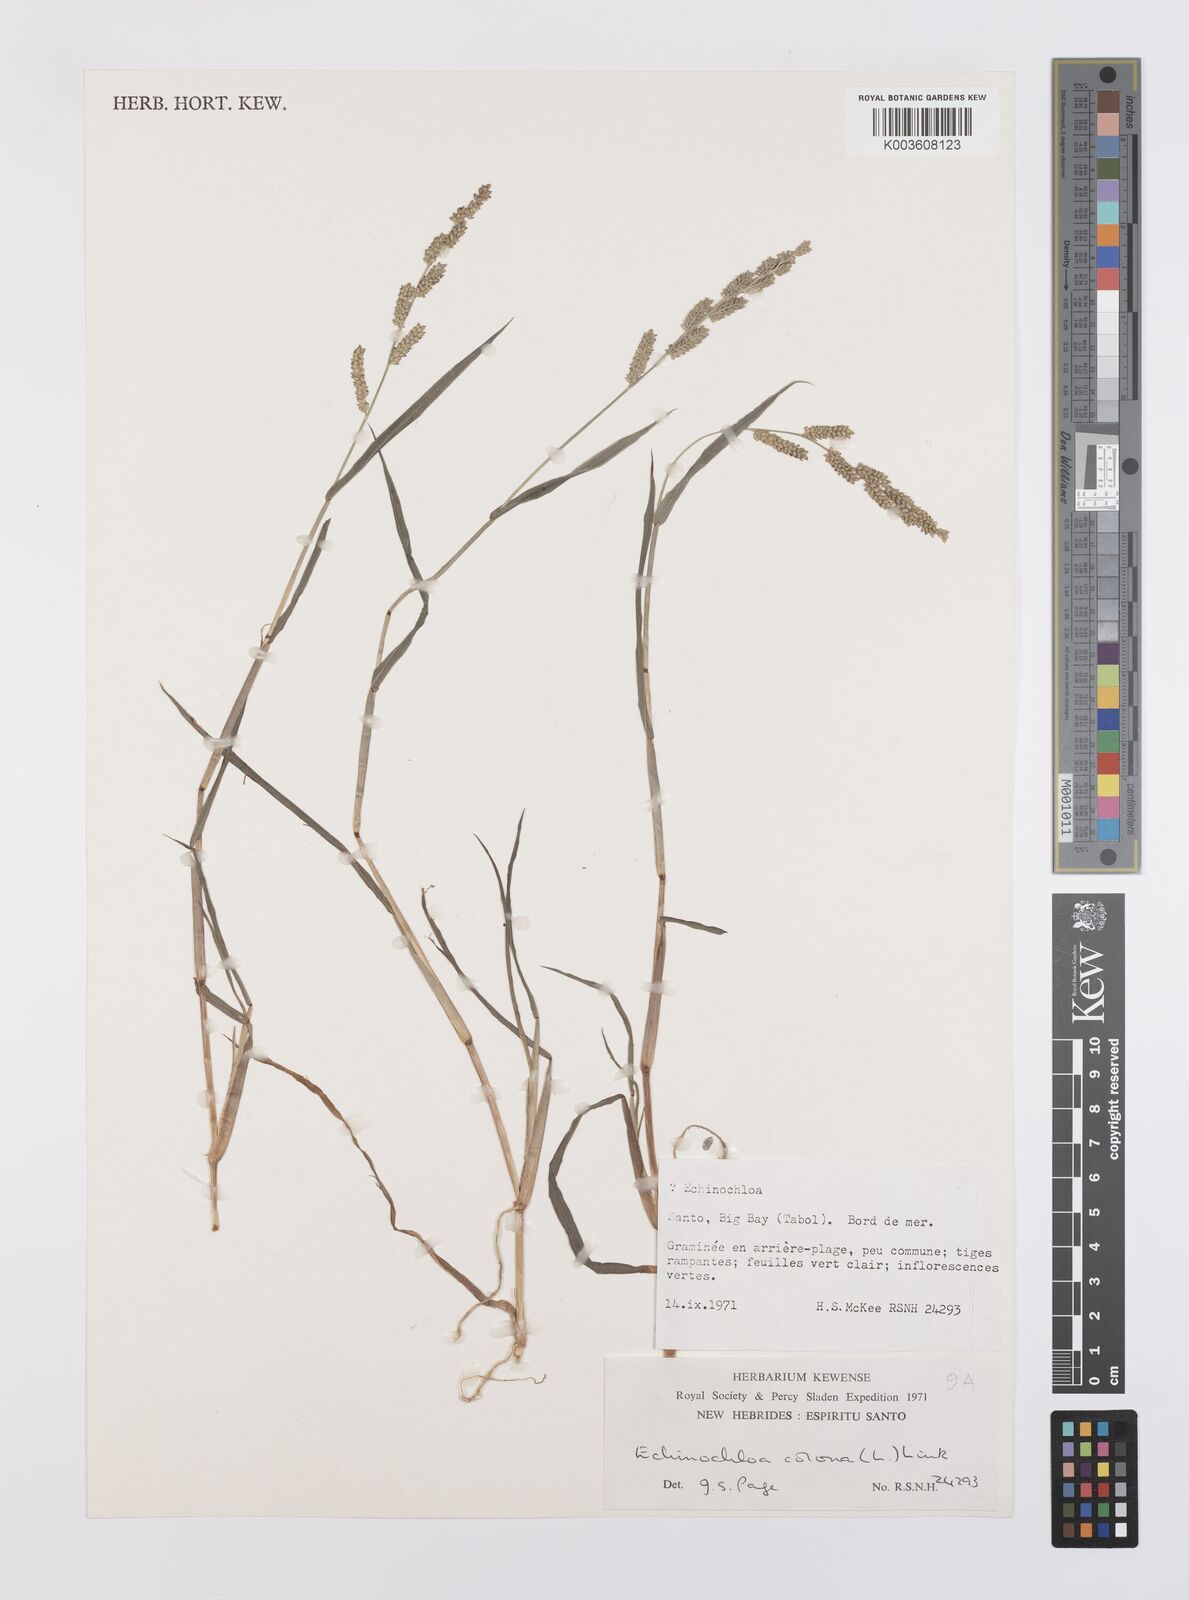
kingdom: Plantae
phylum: Tracheophyta
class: Liliopsida
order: Poales
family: Poaceae
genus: Echinochloa
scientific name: Echinochloa colonum
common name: Jungle rice
